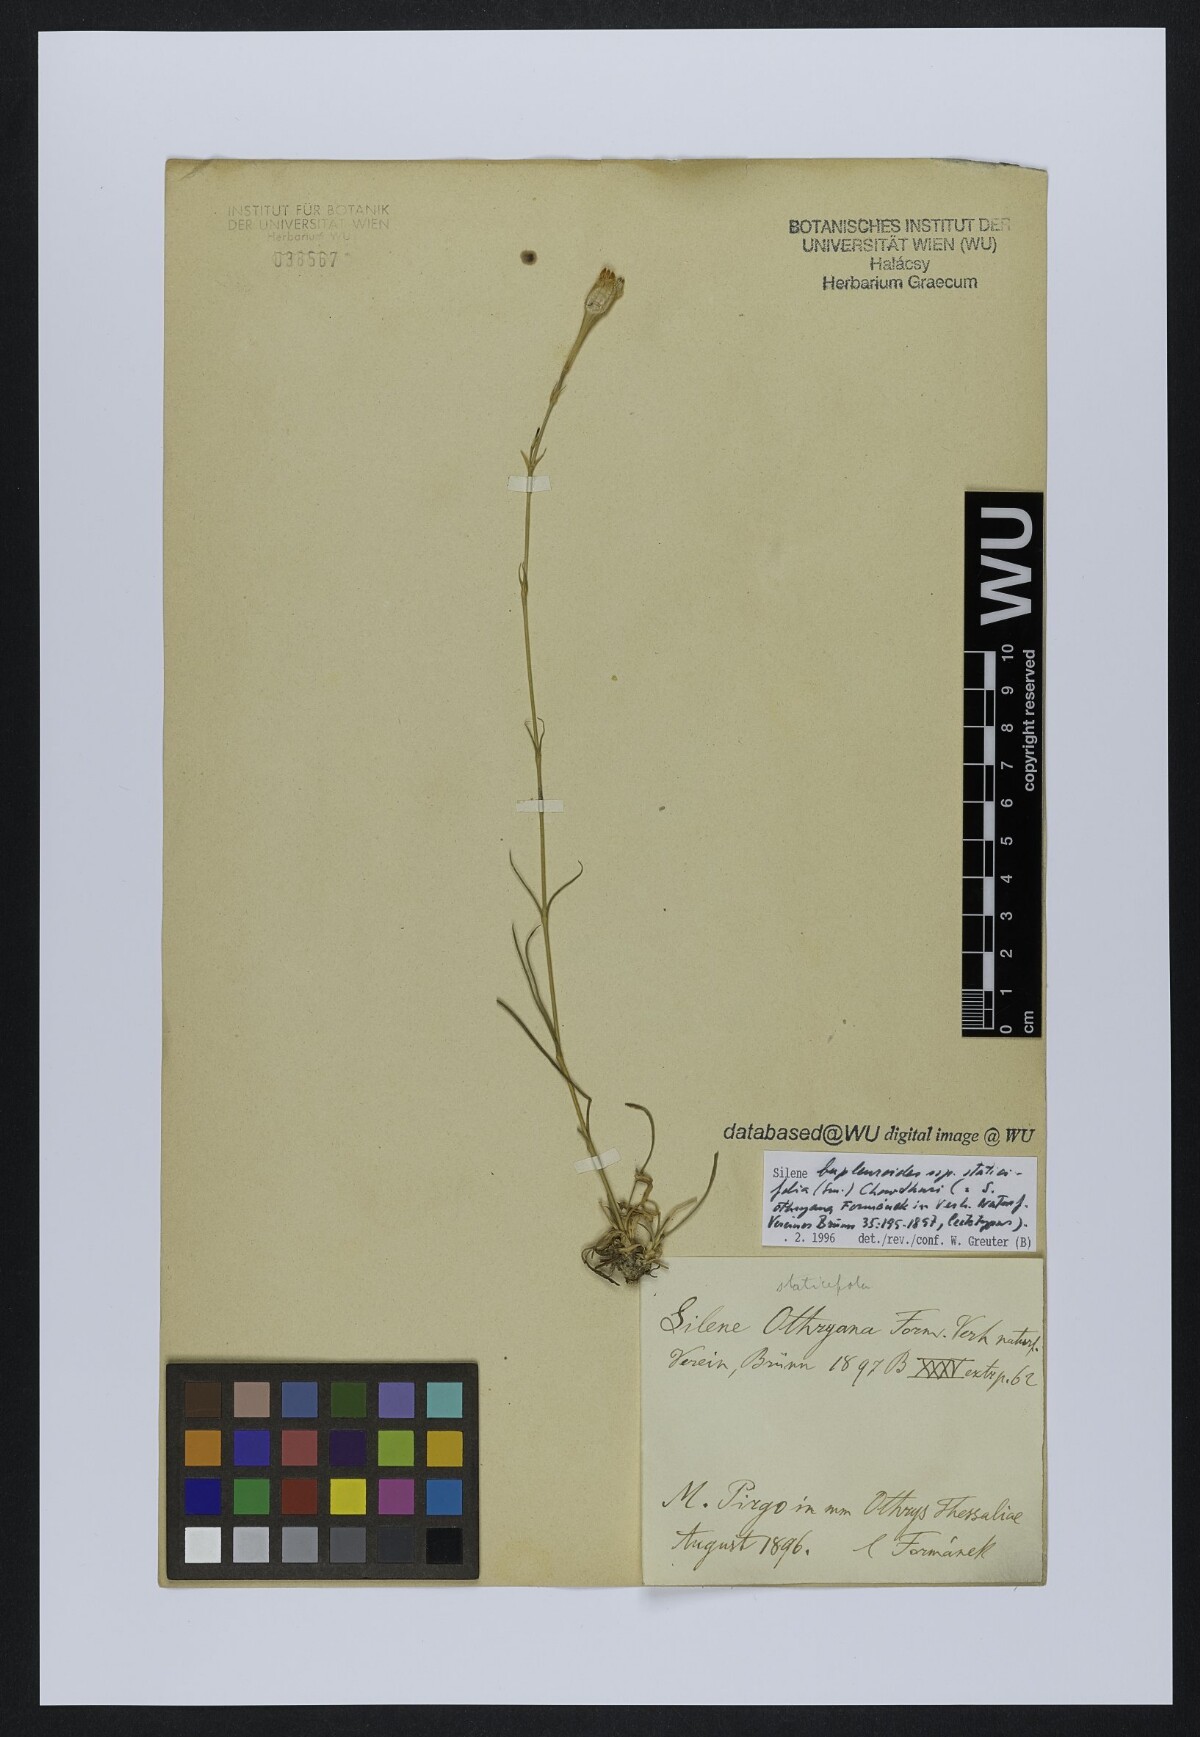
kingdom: Plantae
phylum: Tracheophyta
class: Magnoliopsida
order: Caryophyllales
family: Caryophyllaceae
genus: Silene
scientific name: Silene bupleuroides
